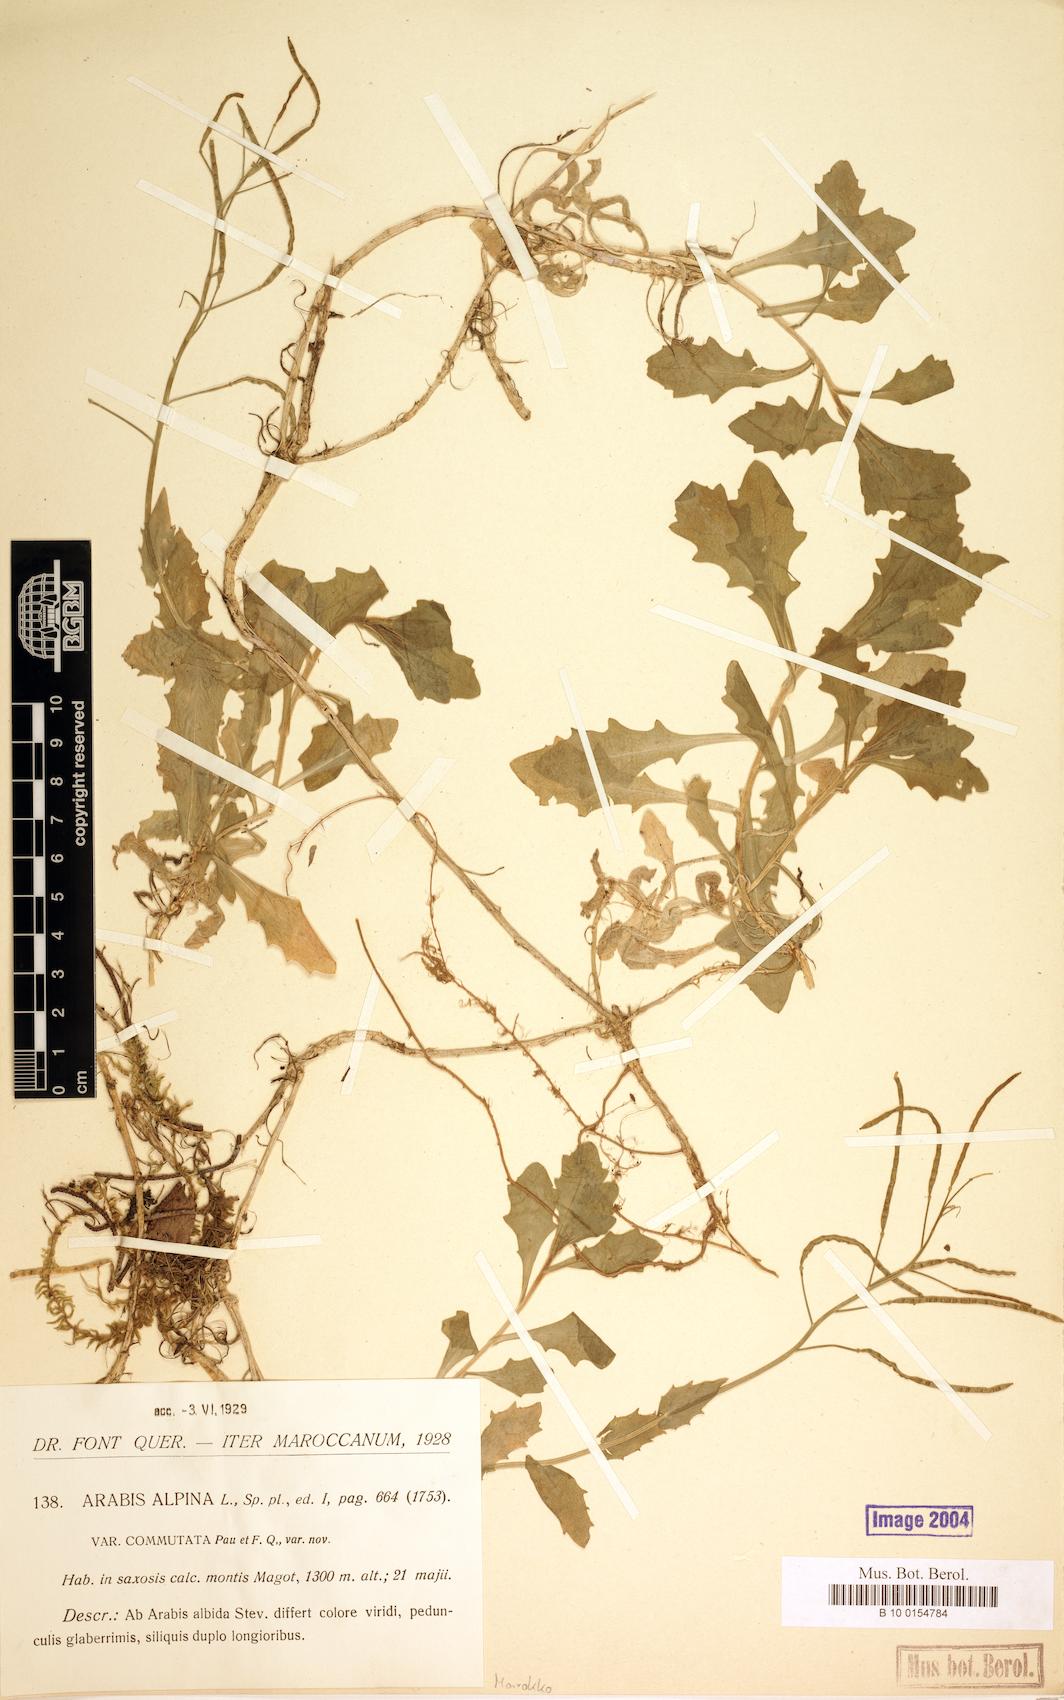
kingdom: Plantae
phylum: Tracheophyta
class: Magnoliopsida
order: Brassicales
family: Brassicaceae
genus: Arabis
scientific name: Arabis caucasica
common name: Gray rockcress
